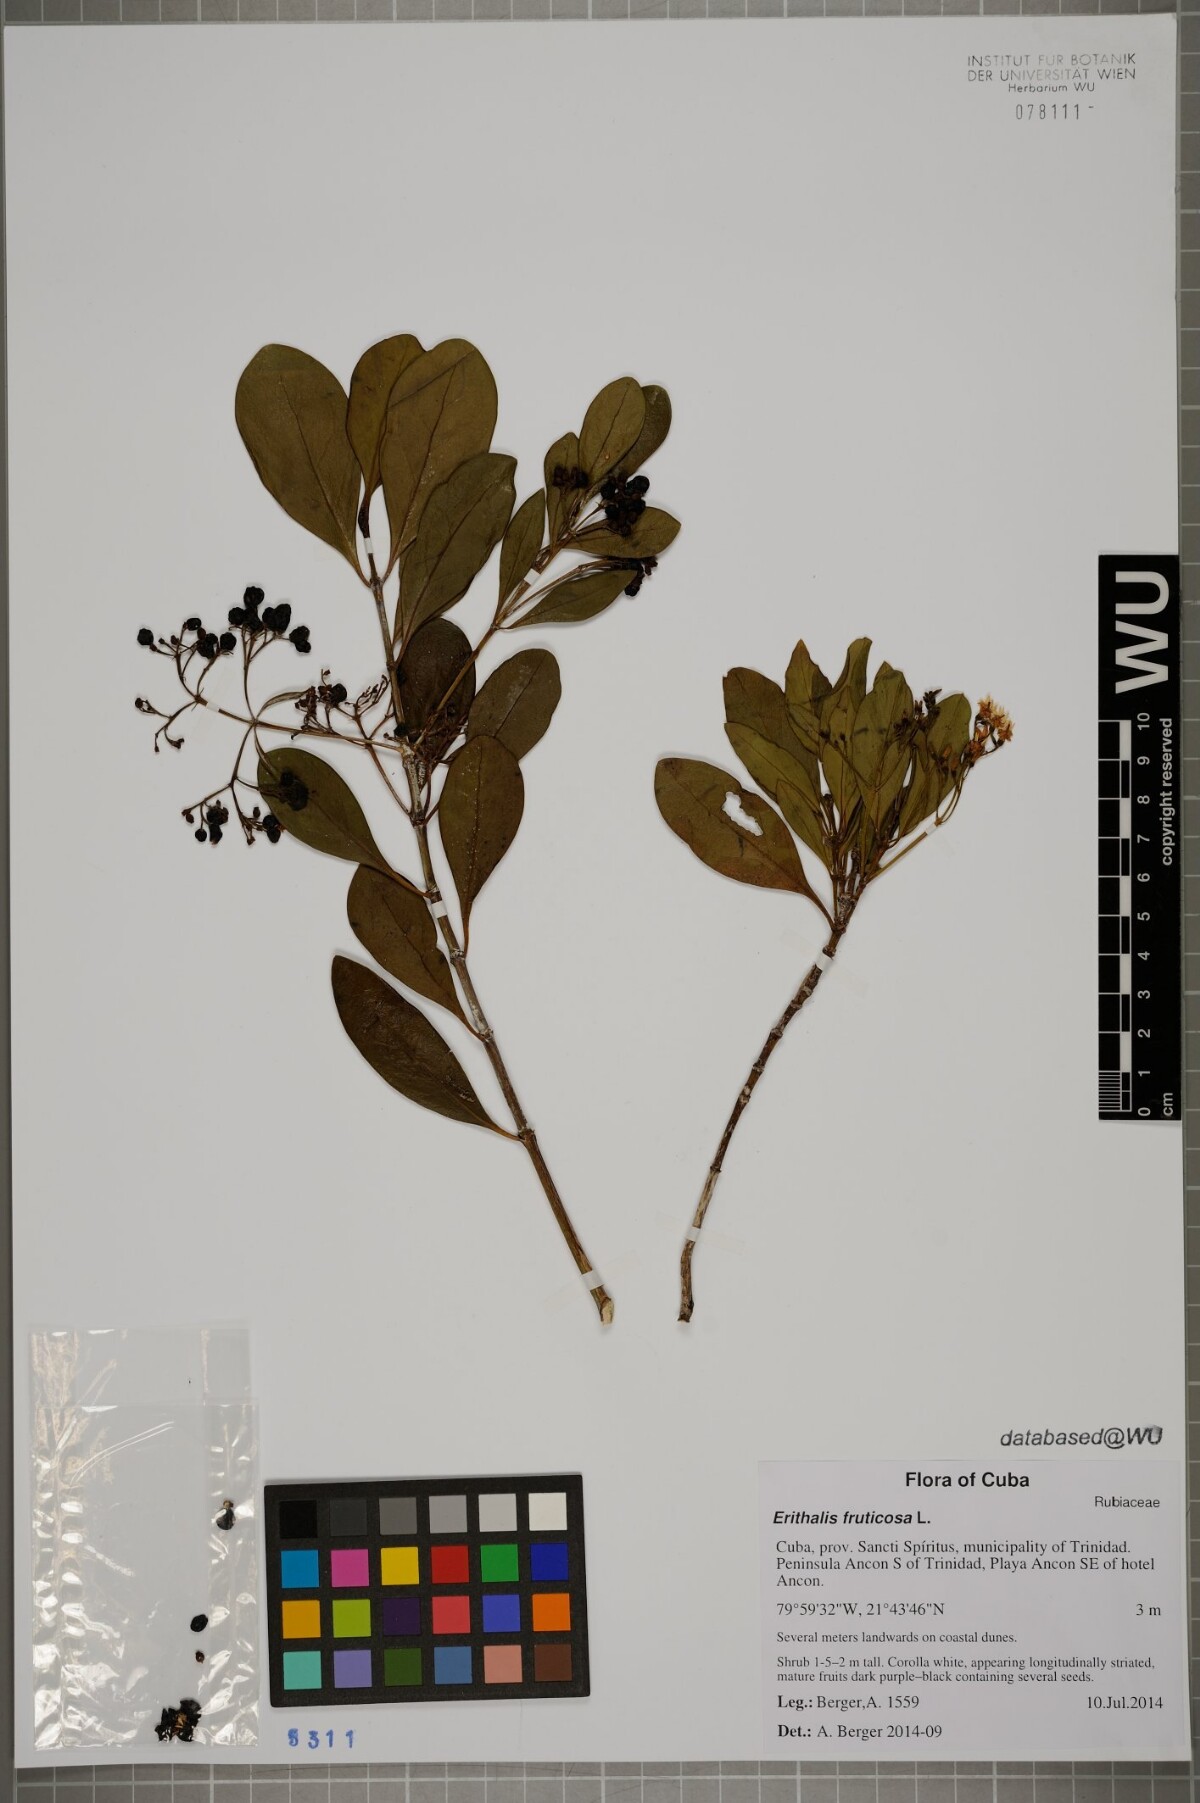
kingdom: Plantae
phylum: Tracheophyta
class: Magnoliopsida
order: Gentianales
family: Rubiaceae
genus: Erithalis
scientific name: Erithalis fruticosa
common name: Candlewood
